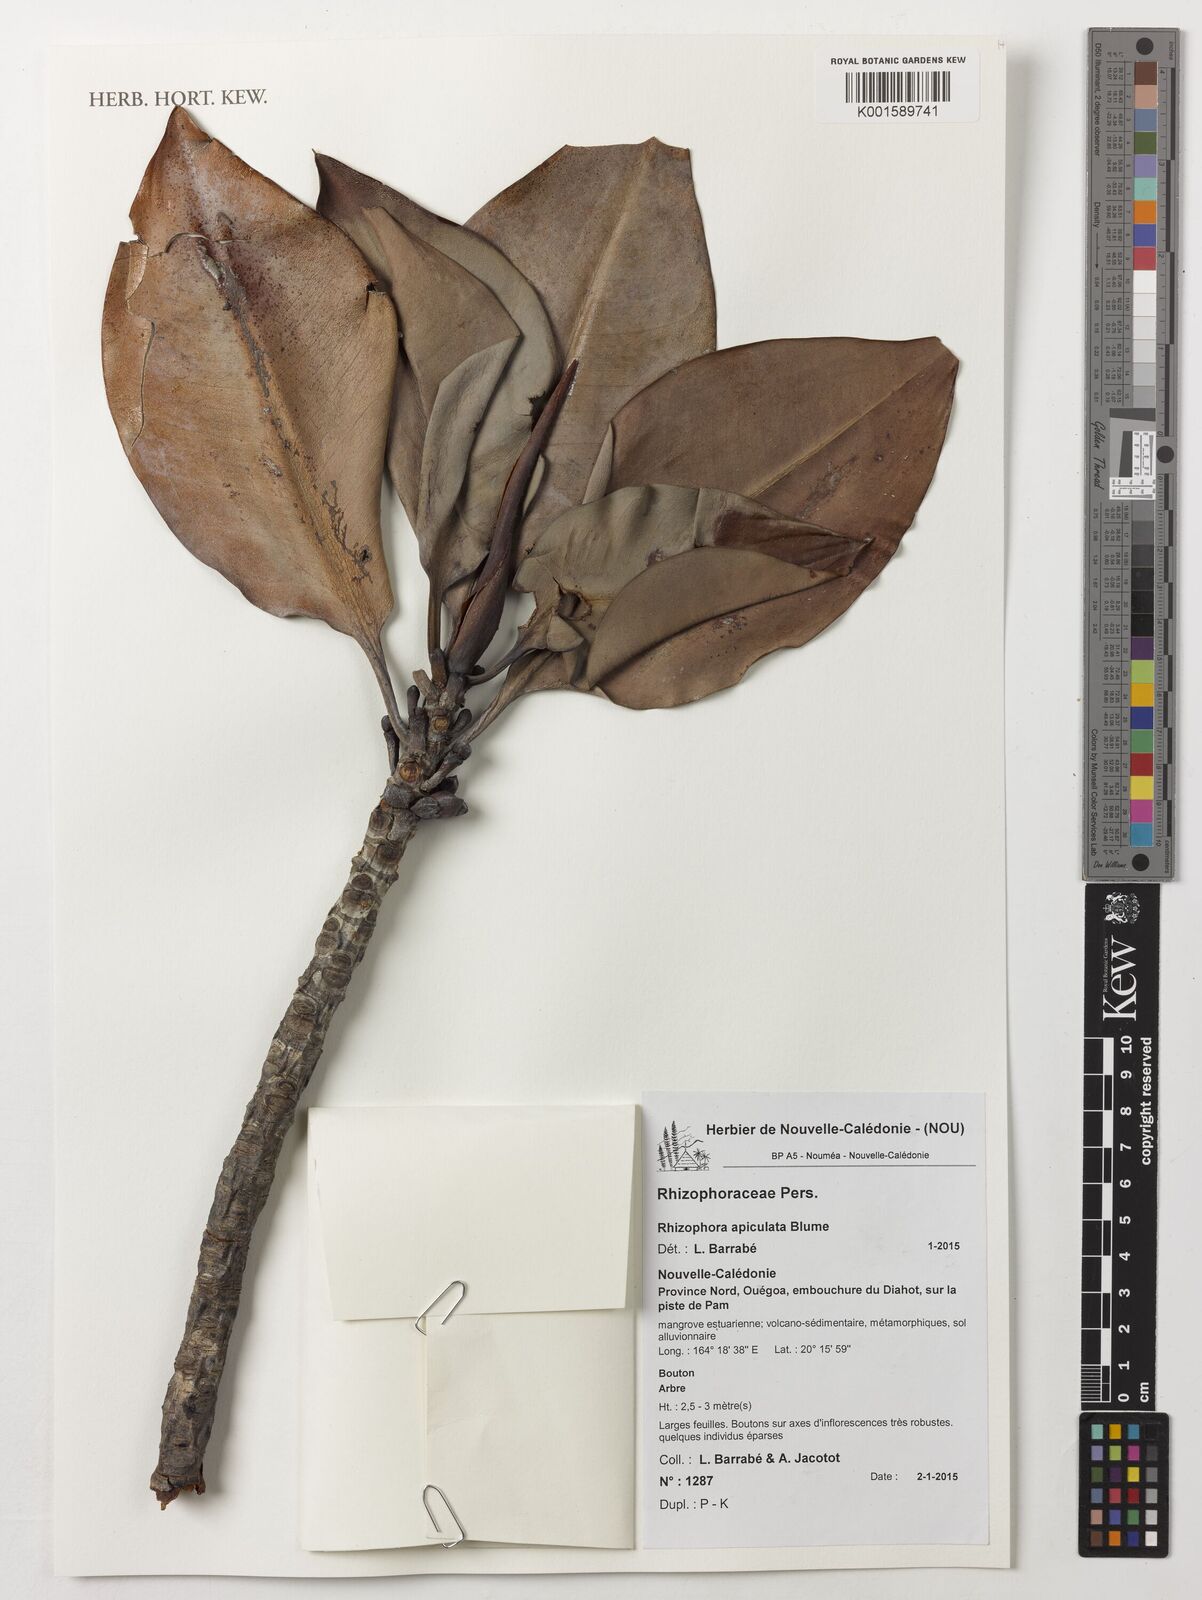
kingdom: Plantae
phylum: Tracheophyta
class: Magnoliopsida
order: Malpighiales
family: Rhizophoraceae
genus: Rhizophora
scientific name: Rhizophora apiculata
